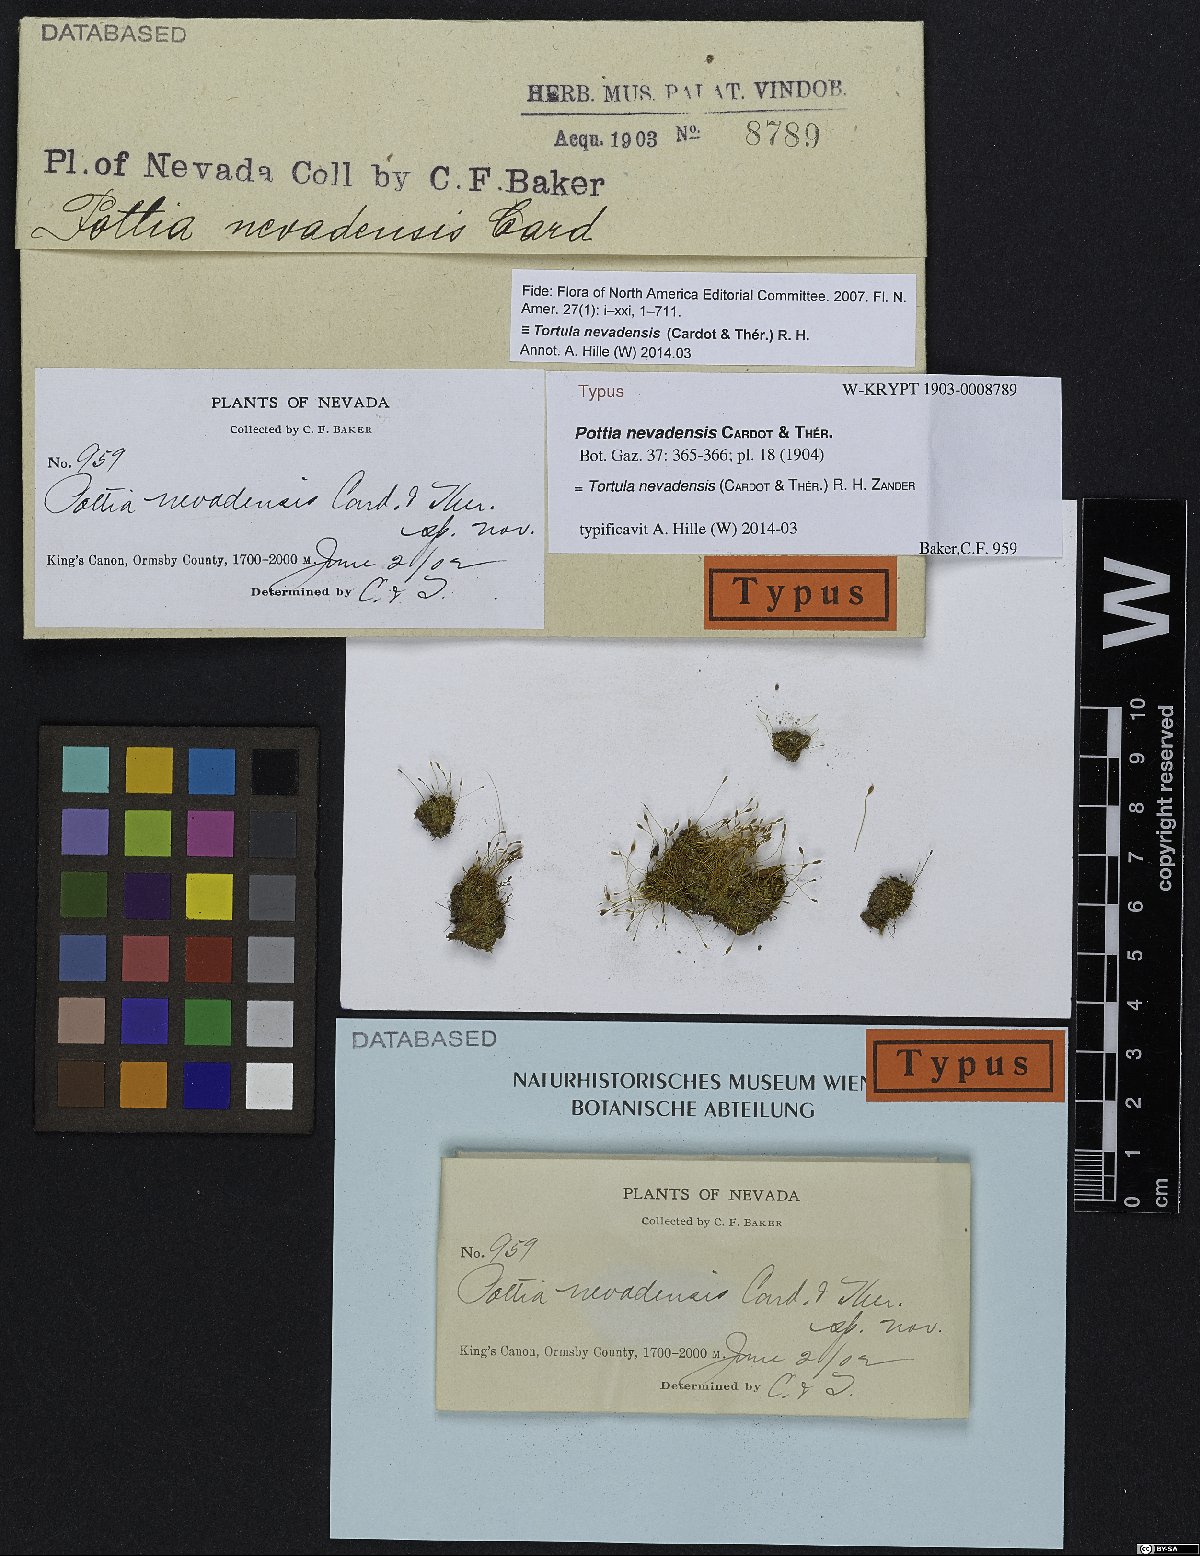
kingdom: Plantae
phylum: Bryophyta
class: Bryopsida
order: Pottiales
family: Pottiaceae
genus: Tortula
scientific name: Tortula nevadensis
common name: Nevada screw moss
